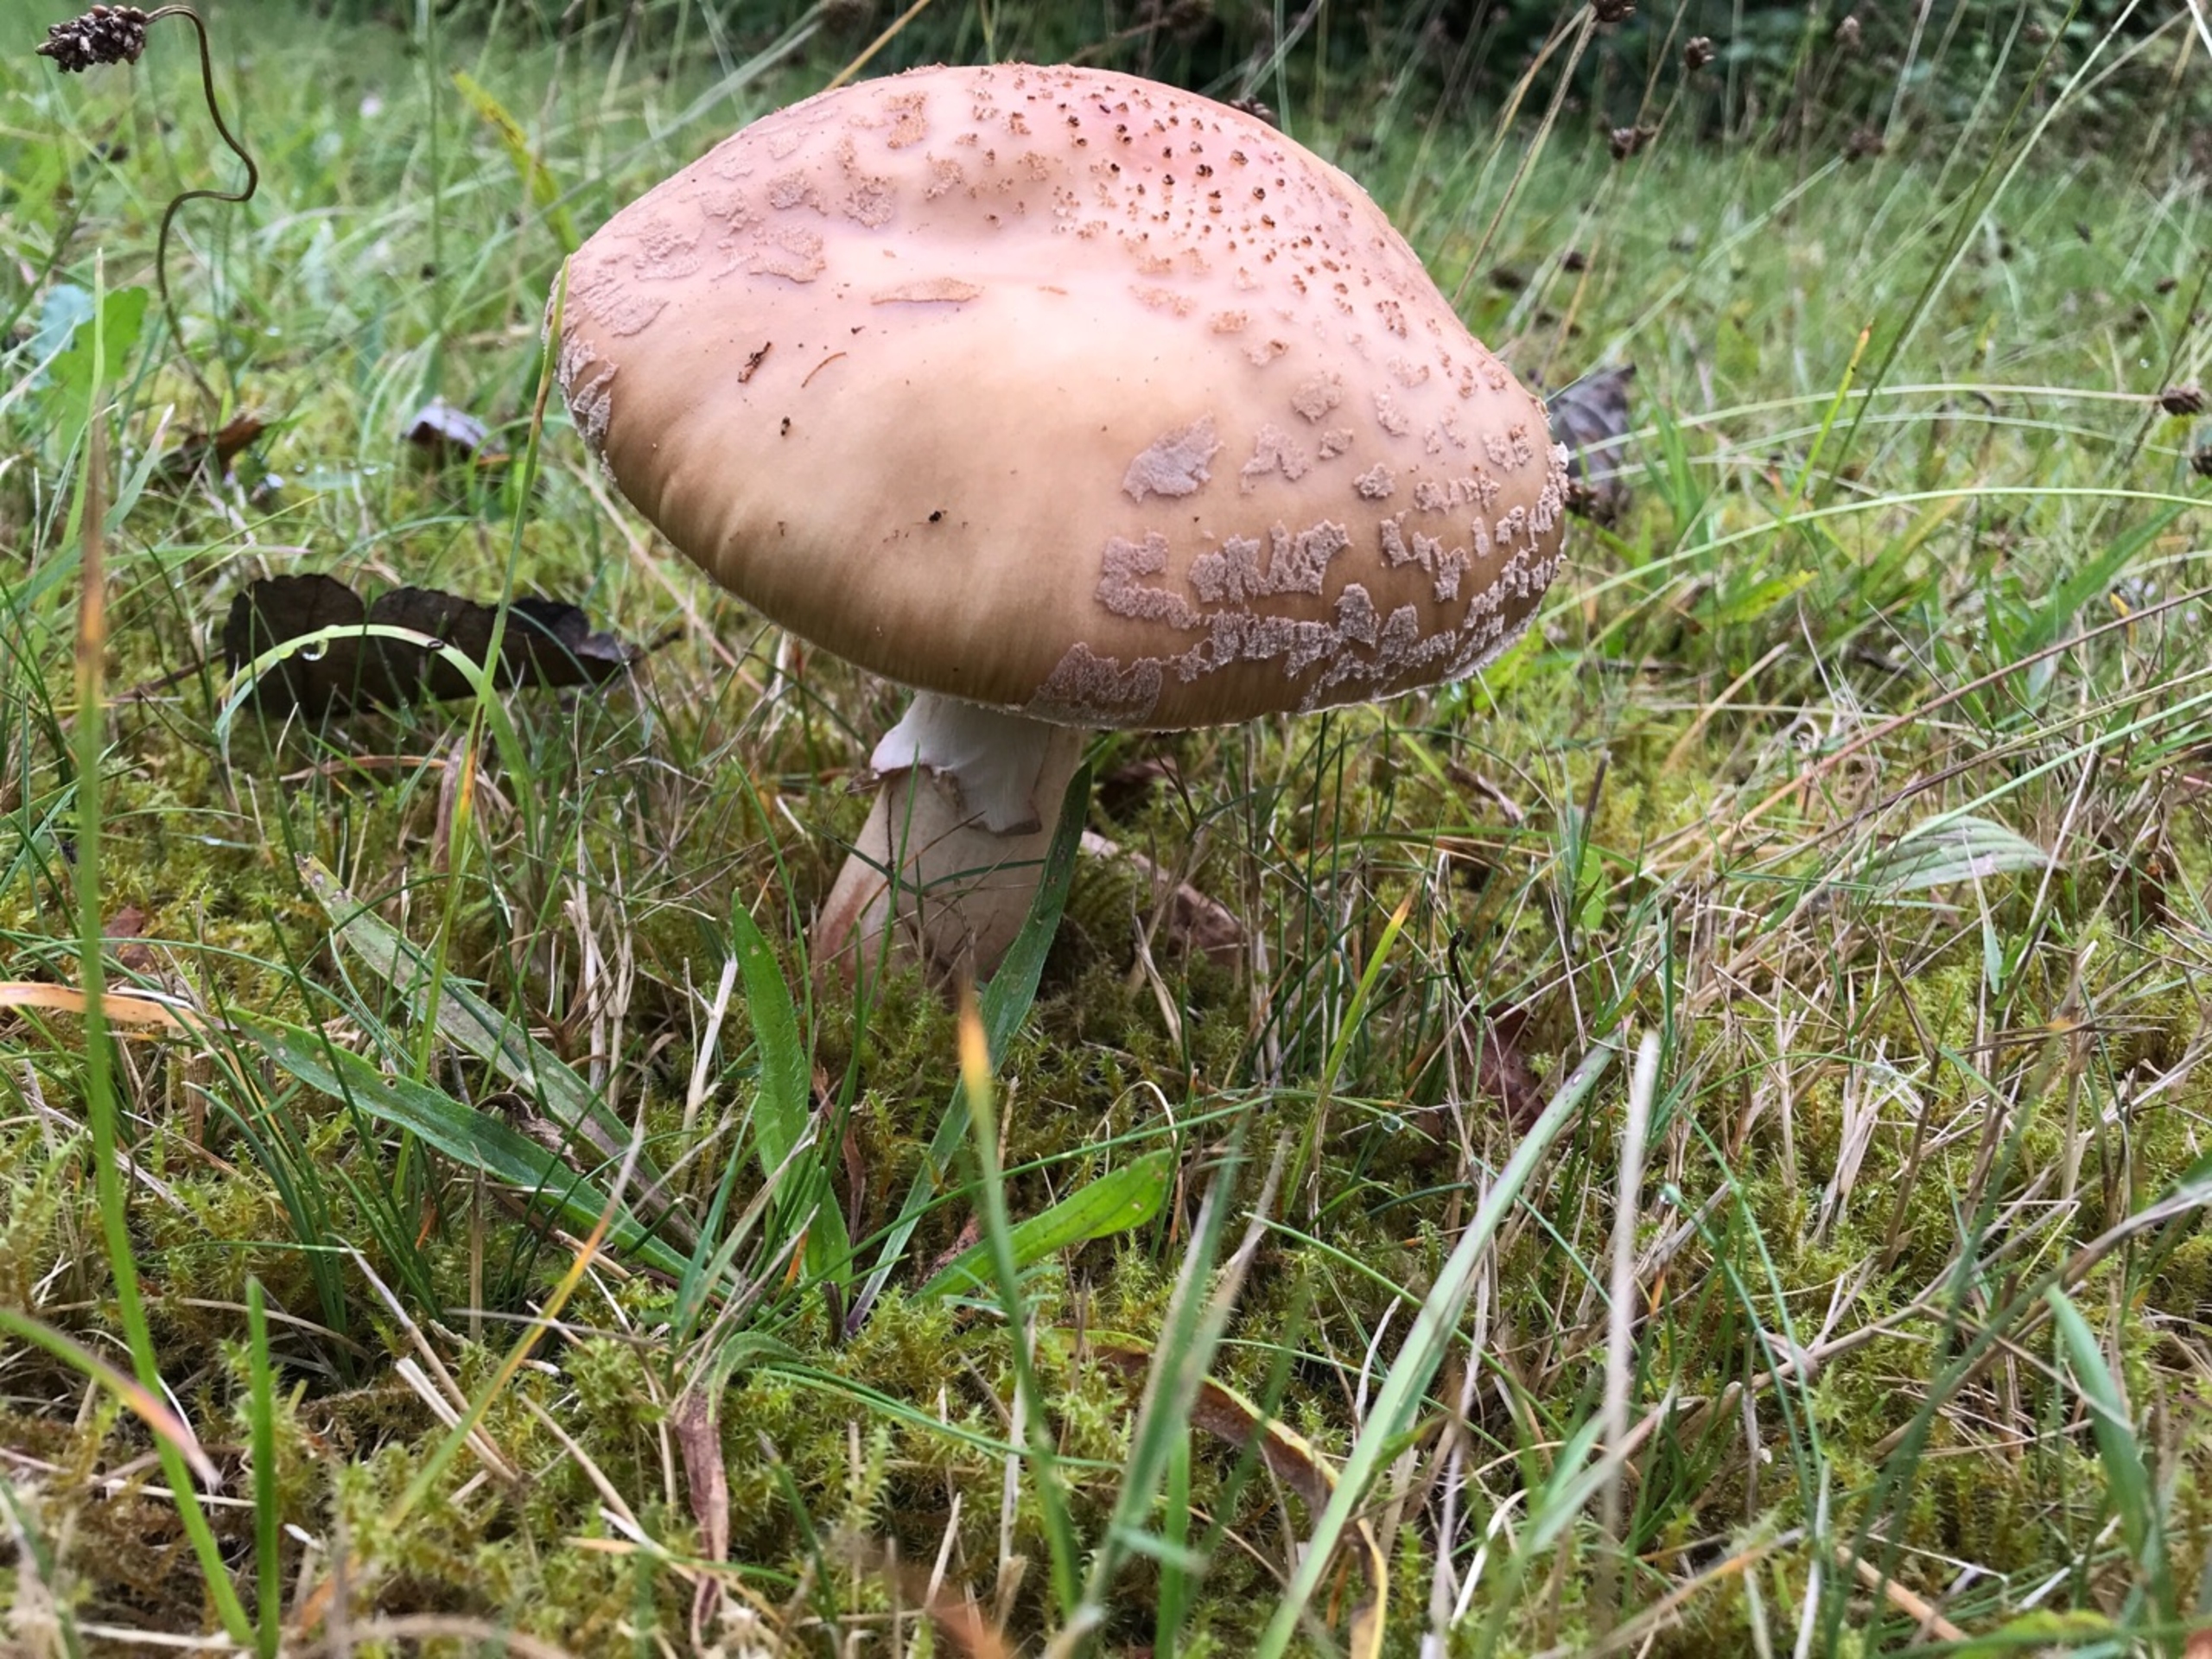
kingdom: Fungi
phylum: Basidiomycota
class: Agaricomycetes
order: Agaricales
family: Amanitaceae
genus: Amanita
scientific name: Amanita rubescens
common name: Rødmende fluesvamp
